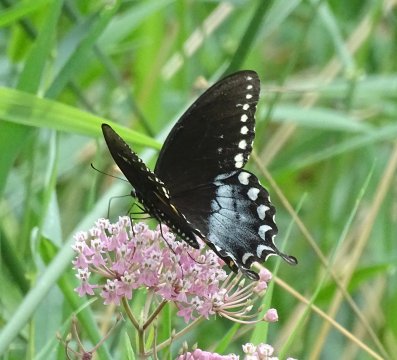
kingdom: Animalia
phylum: Arthropoda
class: Insecta
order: Lepidoptera
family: Papilionidae
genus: Pterourus
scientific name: Pterourus troilus
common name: Spicebush Swallowtail
